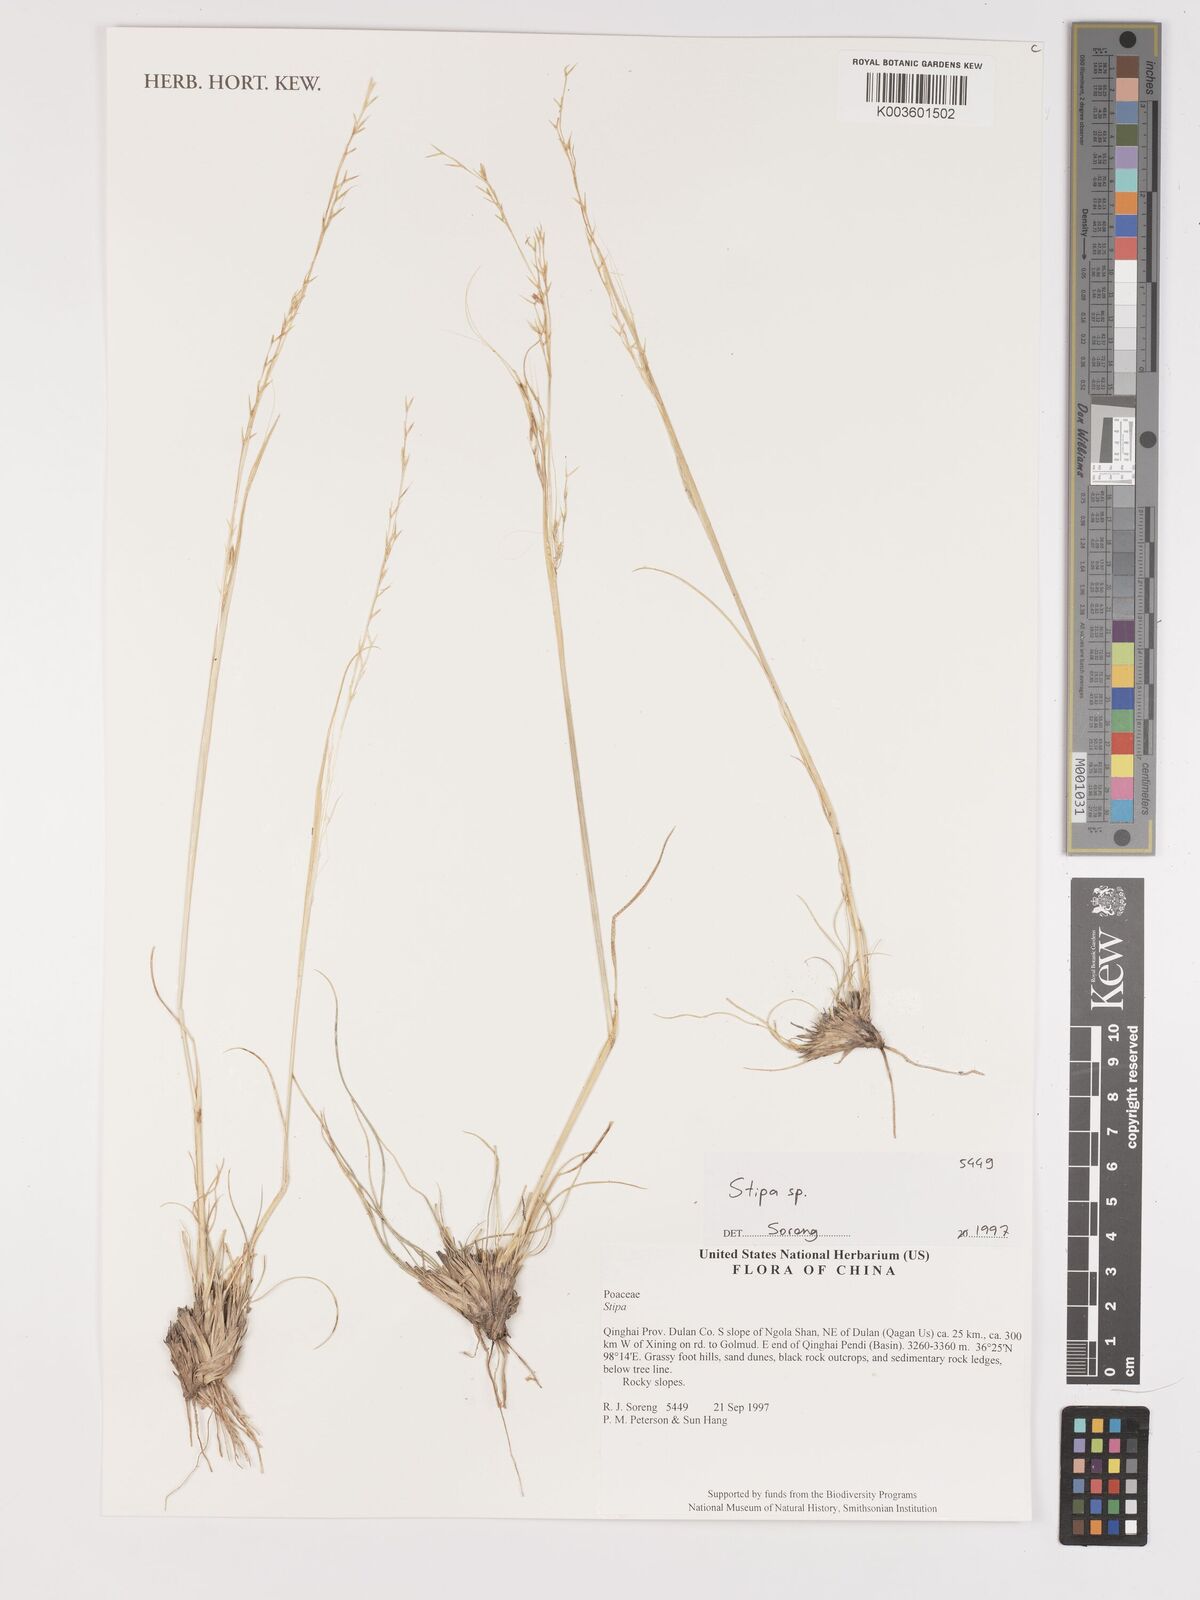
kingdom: Plantae
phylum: Tracheophyta
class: Liliopsida
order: Poales
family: Poaceae
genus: Stipa
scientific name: Stipa
